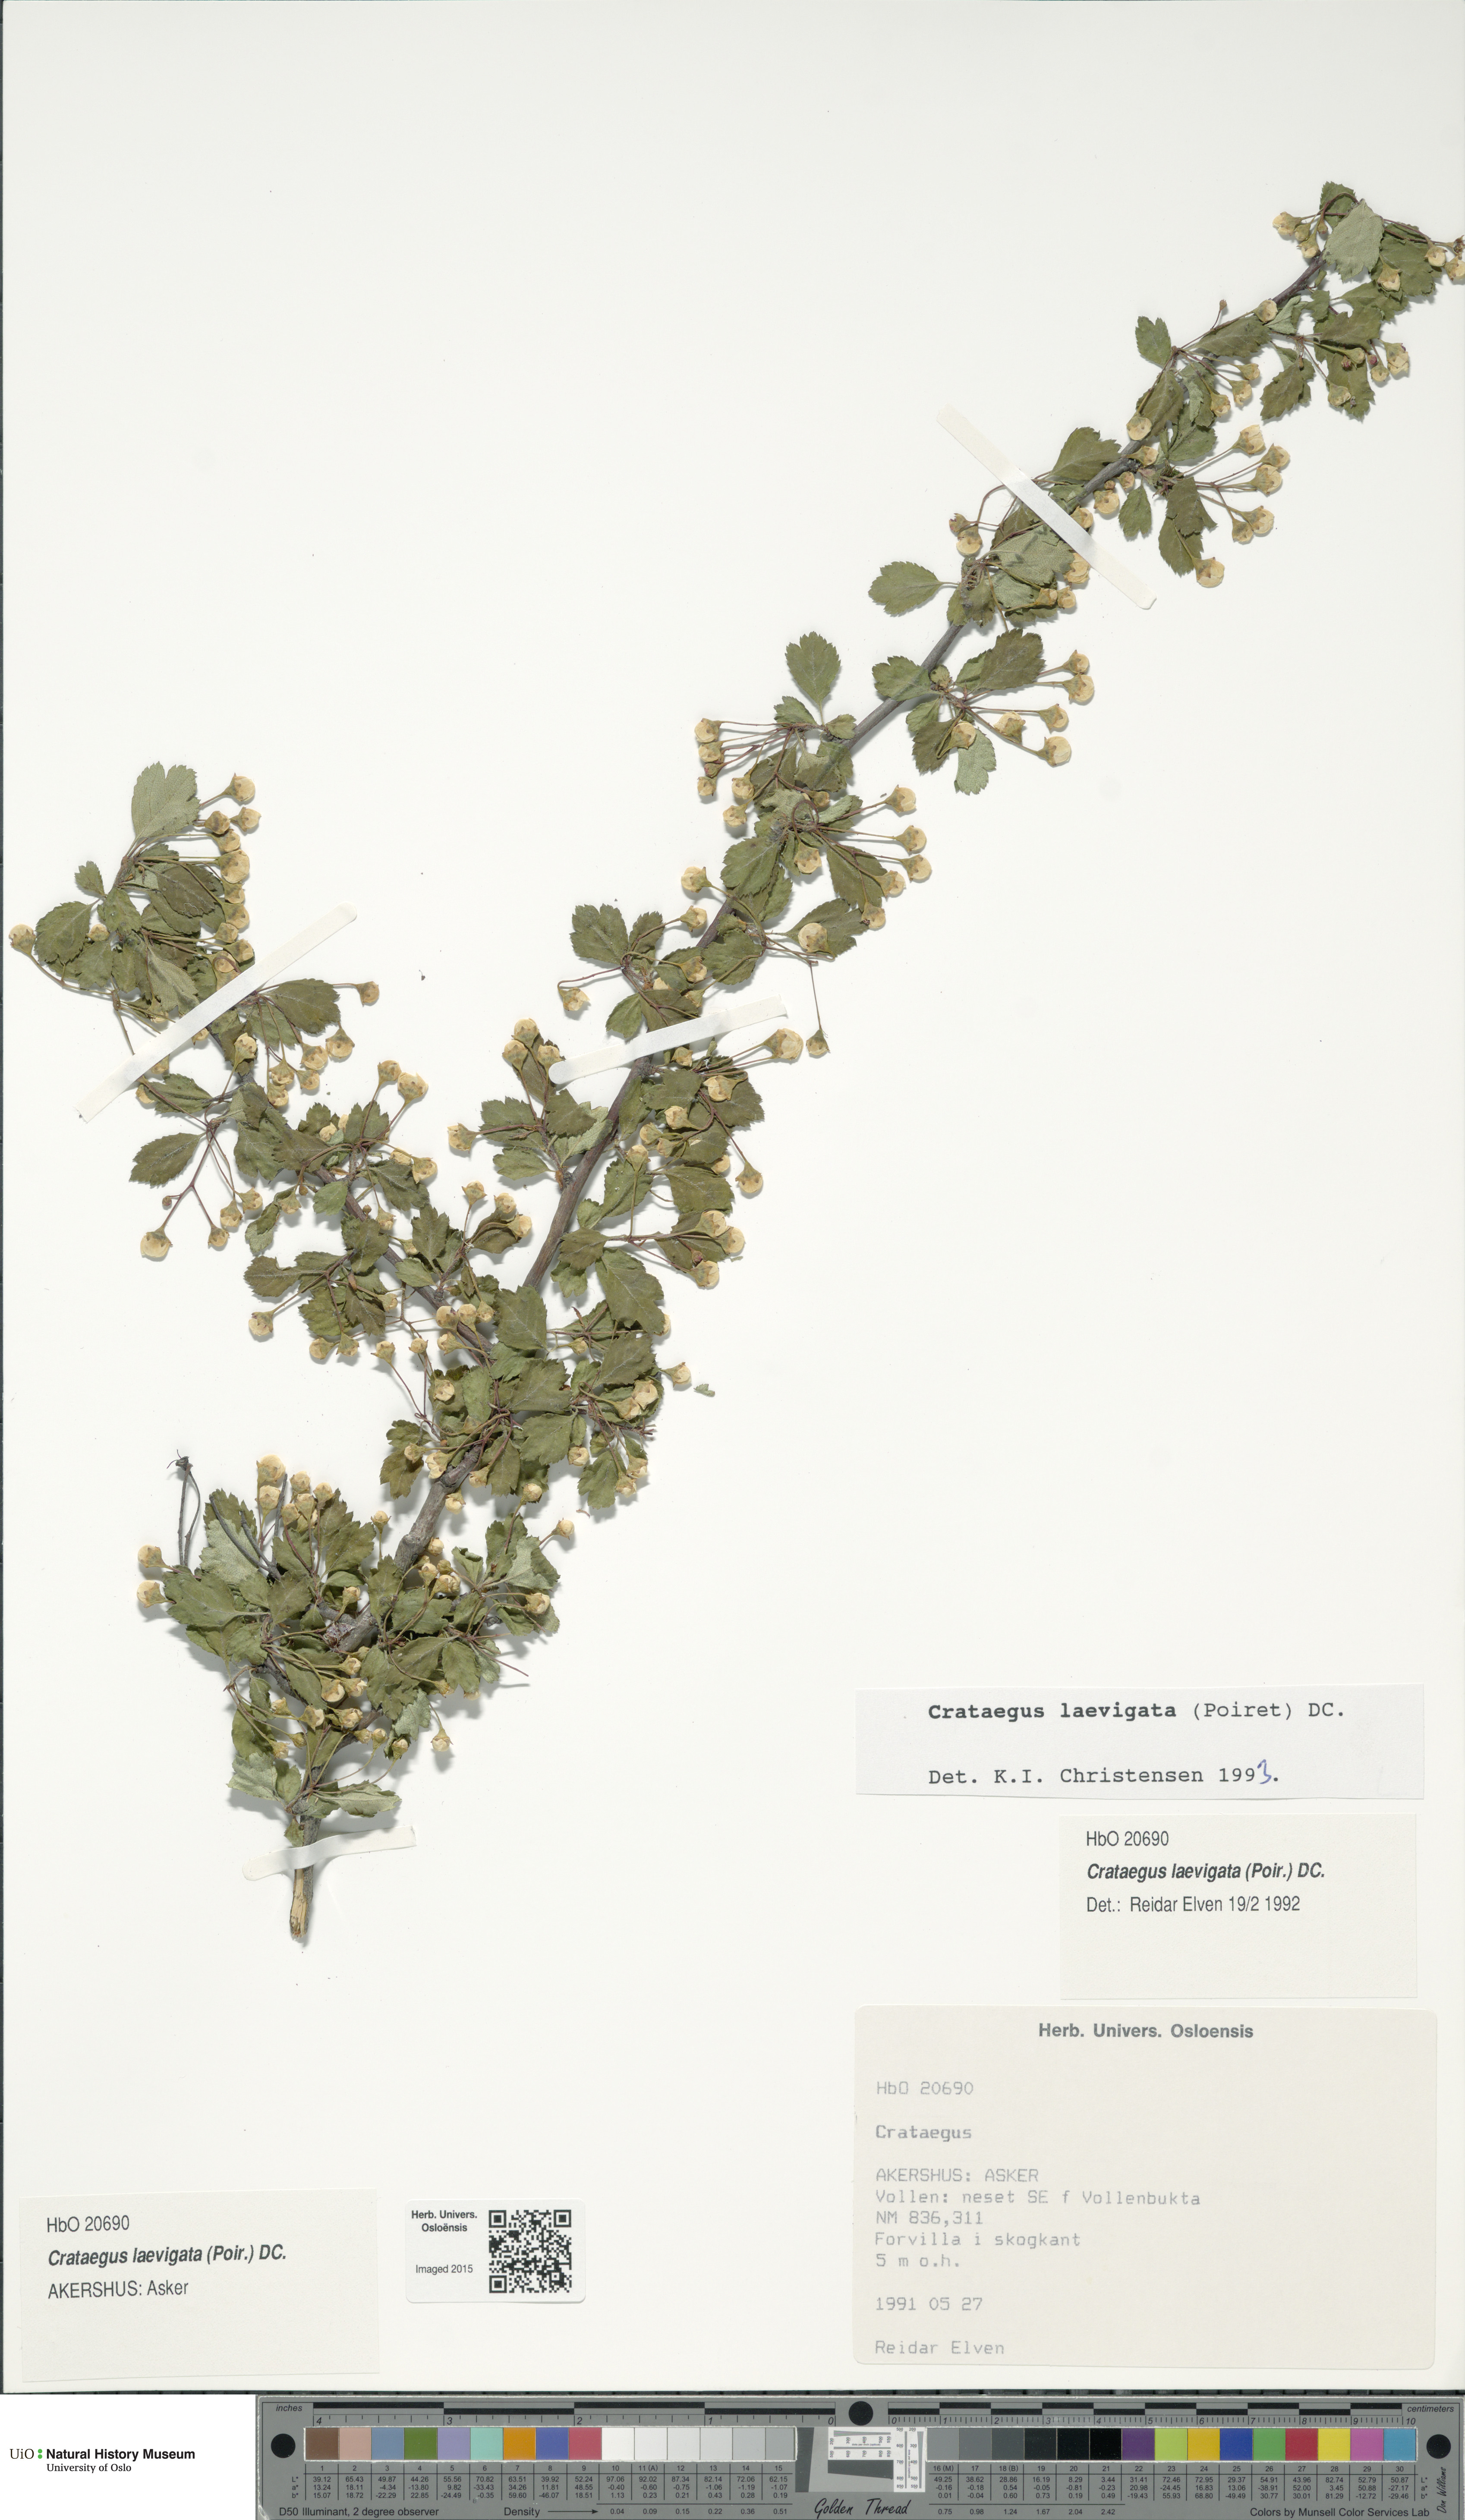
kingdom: Plantae
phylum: Tracheophyta
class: Magnoliopsida
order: Rosales
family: Rosaceae
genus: Crataegus
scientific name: Crataegus laevigata
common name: Midland hawthorn
